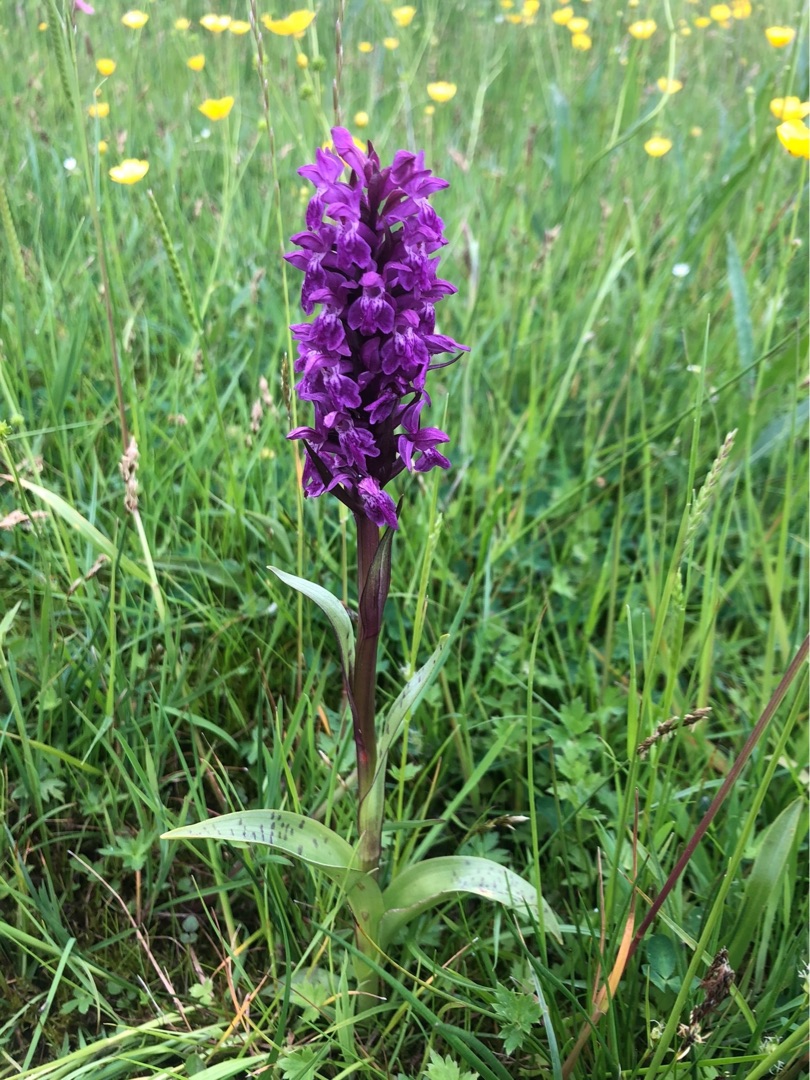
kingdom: Plantae
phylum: Tracheophyta
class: Liliopsida
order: Asparagales
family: Orchidaceae
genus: Dactylorhiza
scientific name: Dactylorhiza majalis
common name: Maj-gøgeurt
